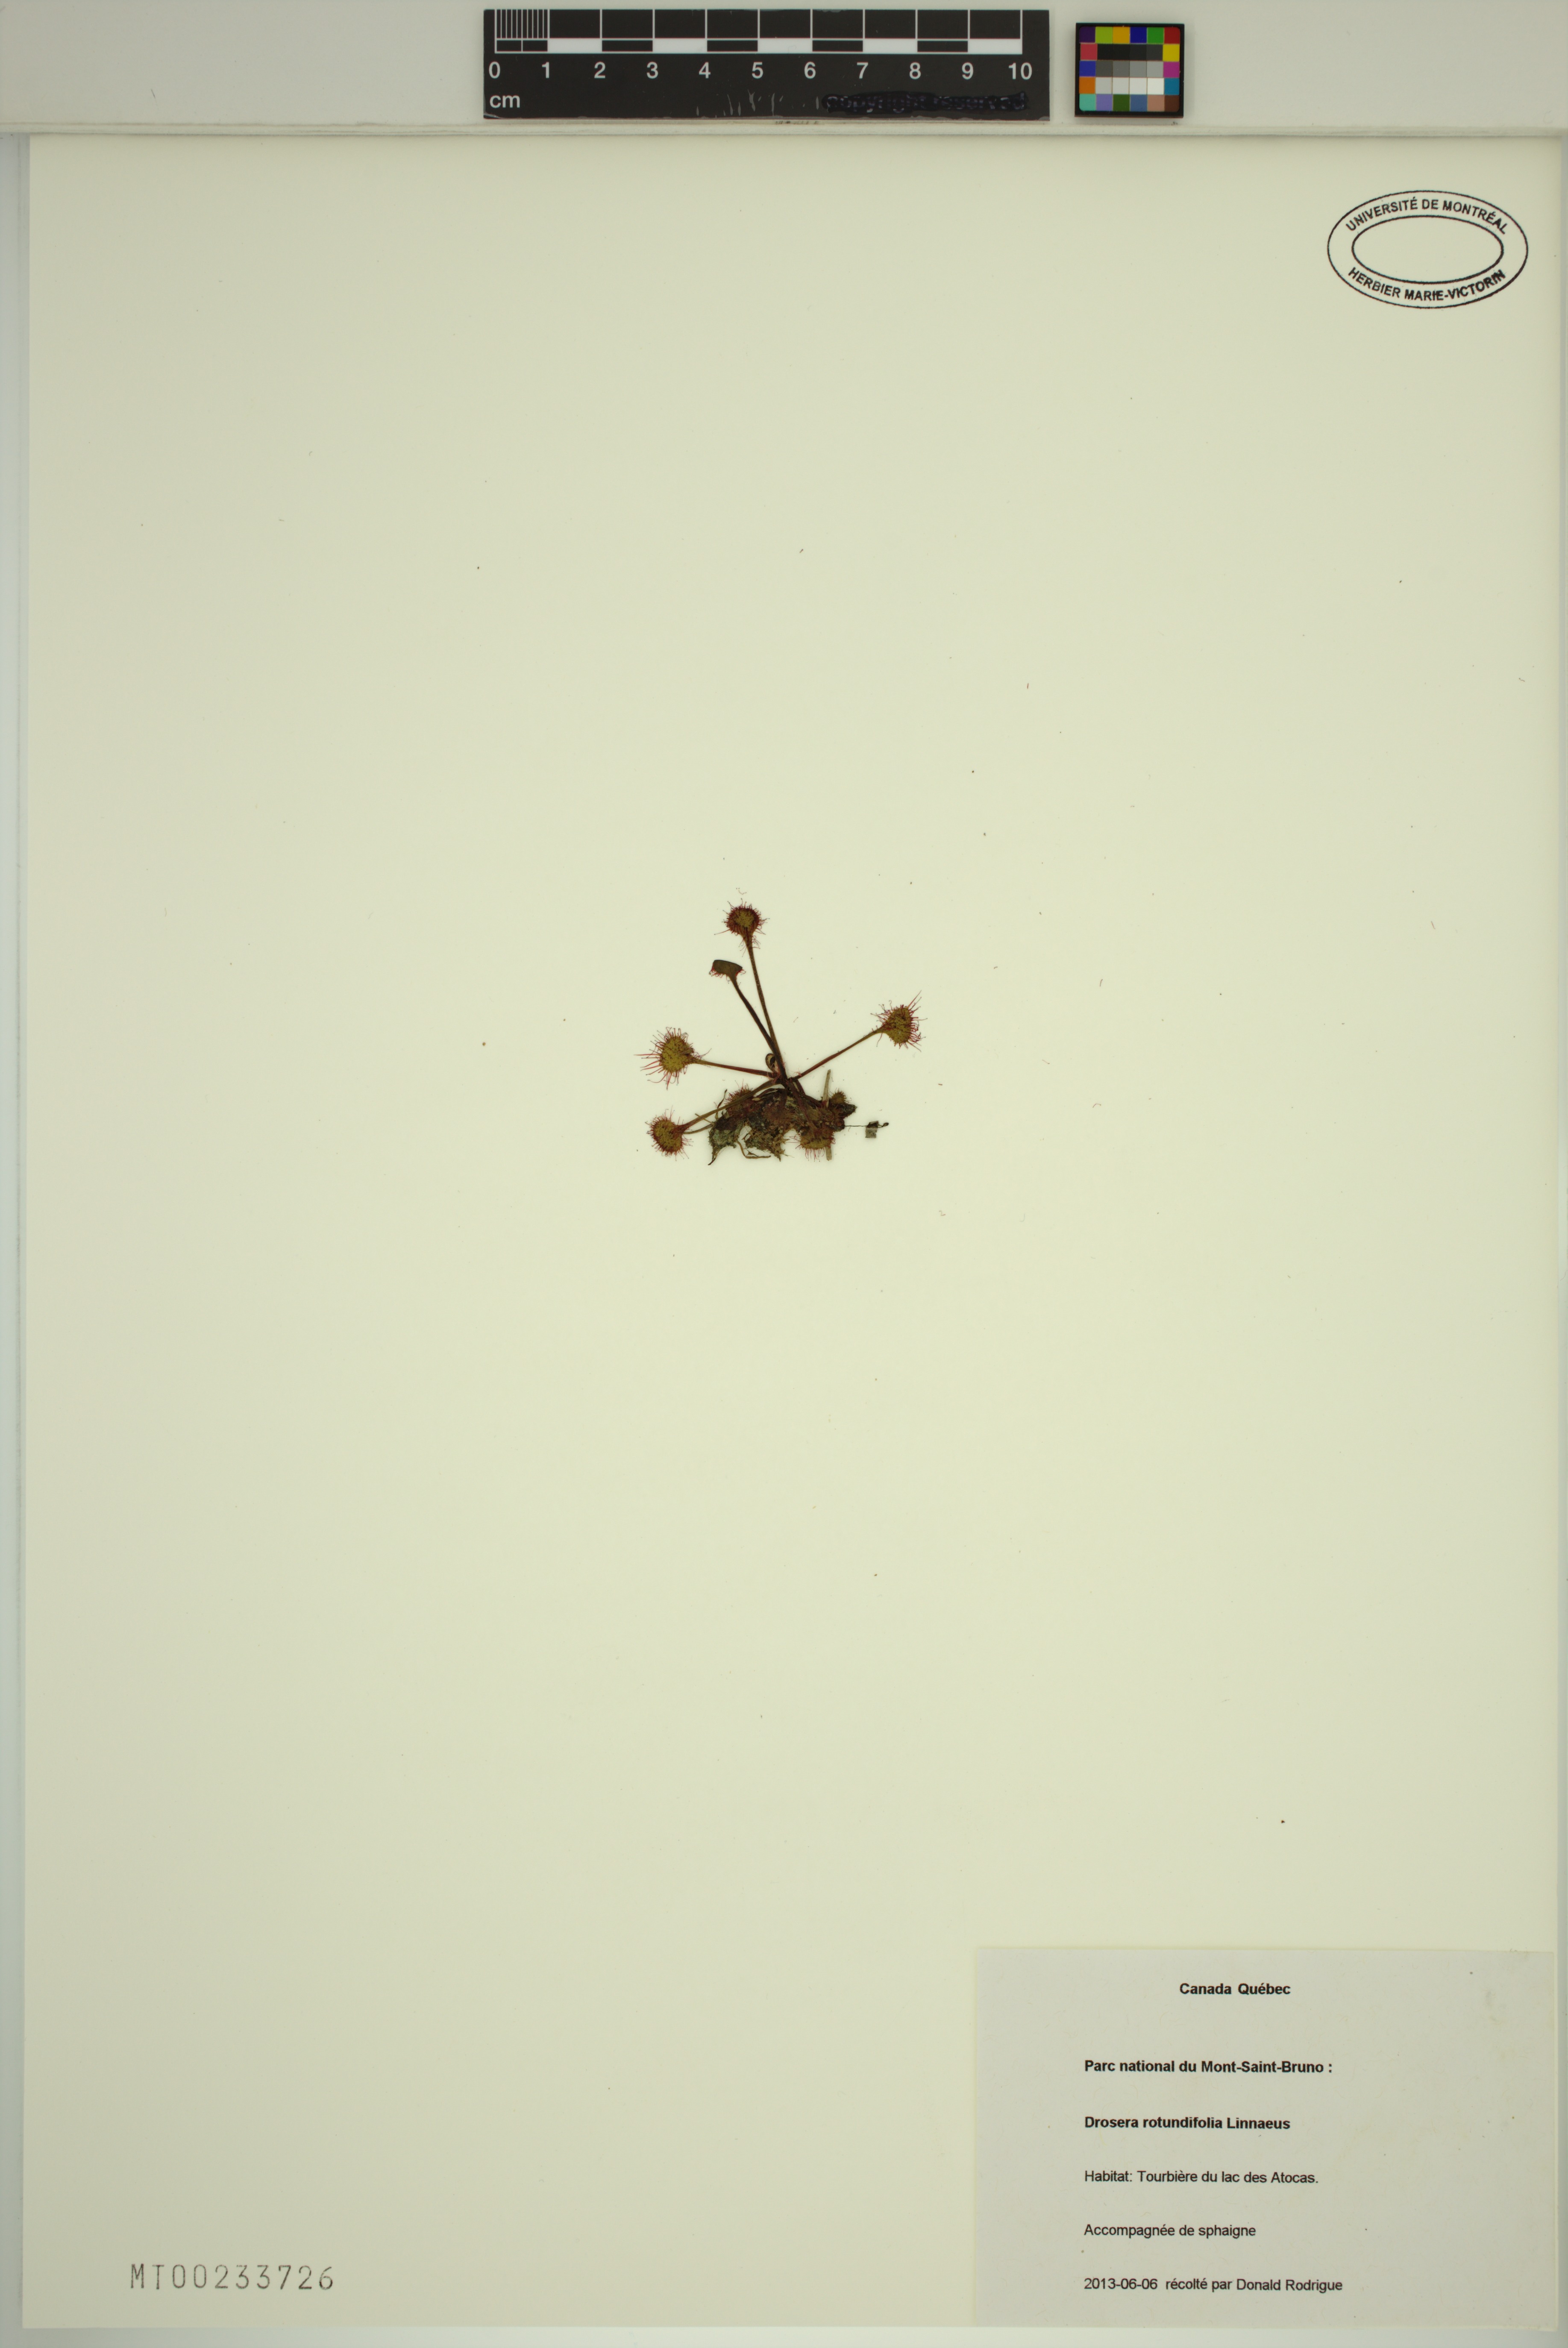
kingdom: Plantae
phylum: Tracheophyta
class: Magnoliopsida
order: Caryophyllales
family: Droseraceae
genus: Drosera
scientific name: Drosera rotundifolia
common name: Round-leaved sundew
